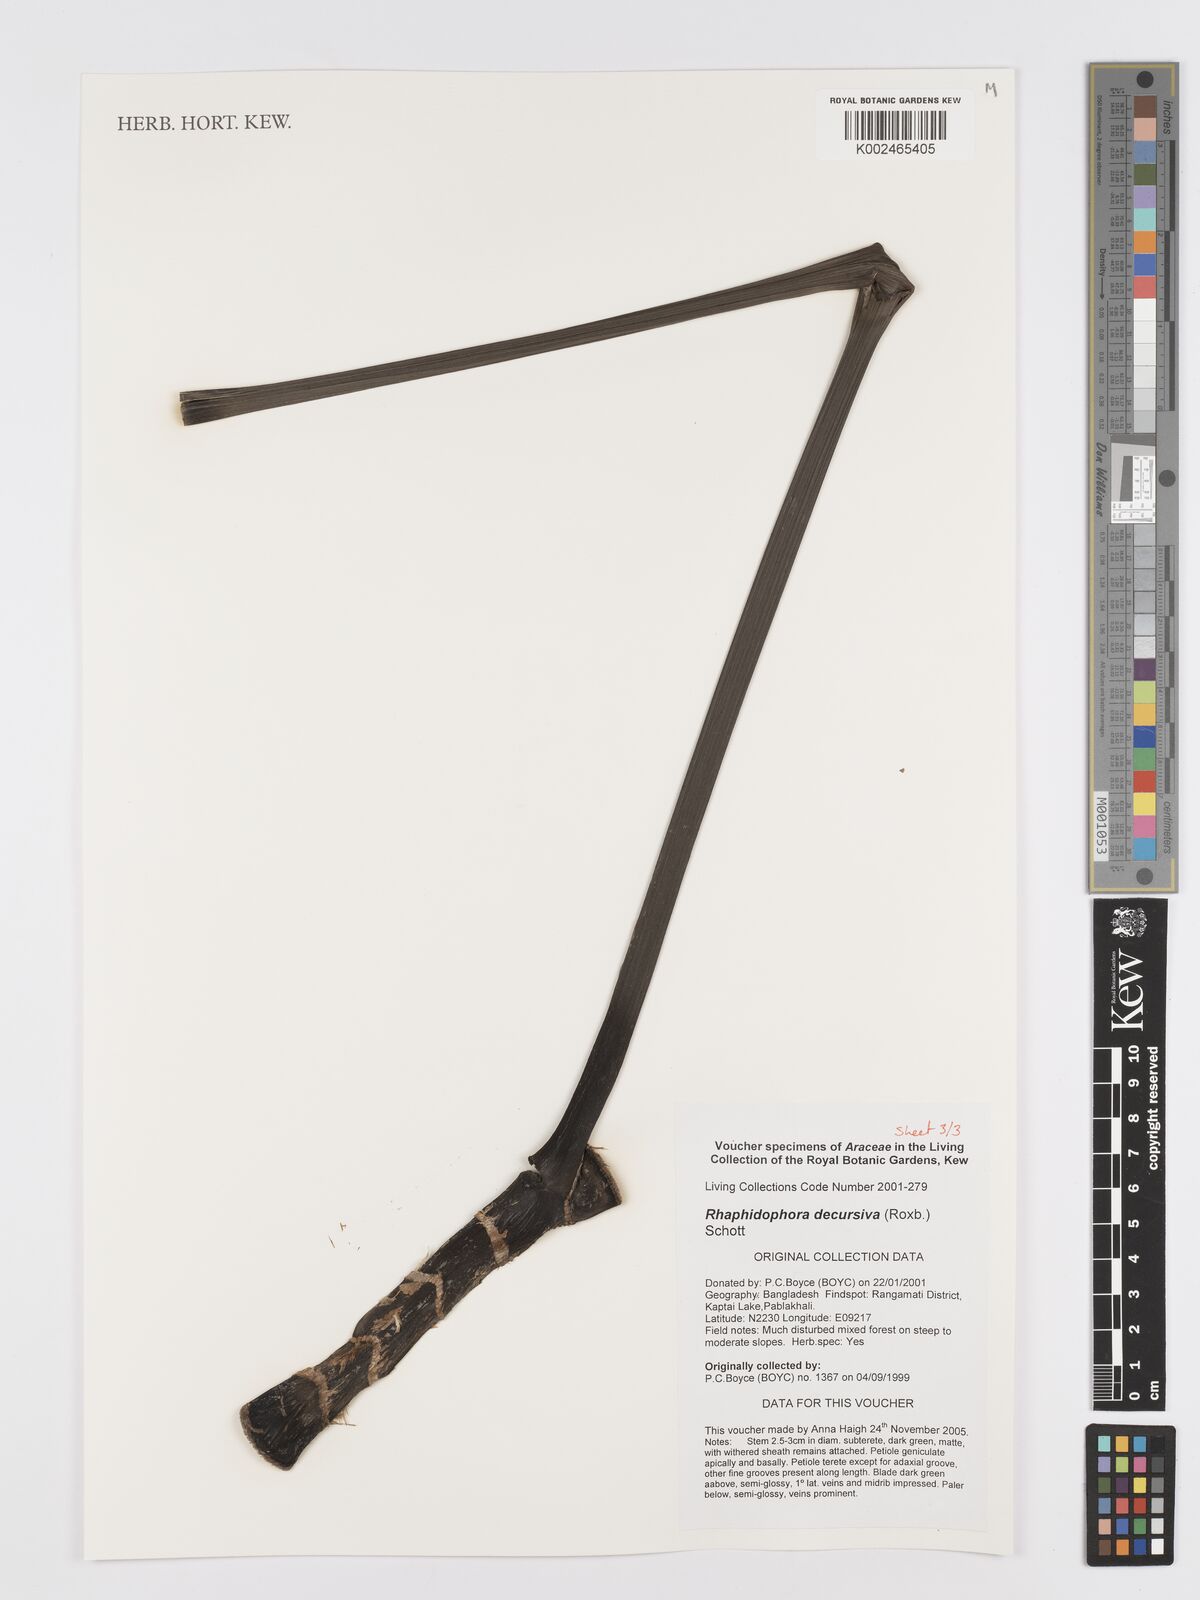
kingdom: Plantae
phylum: Tracheophyta
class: Liliopsida
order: Alismatales
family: Araceae
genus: Rhaphidophora
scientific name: Rhaphidophora decursiva
